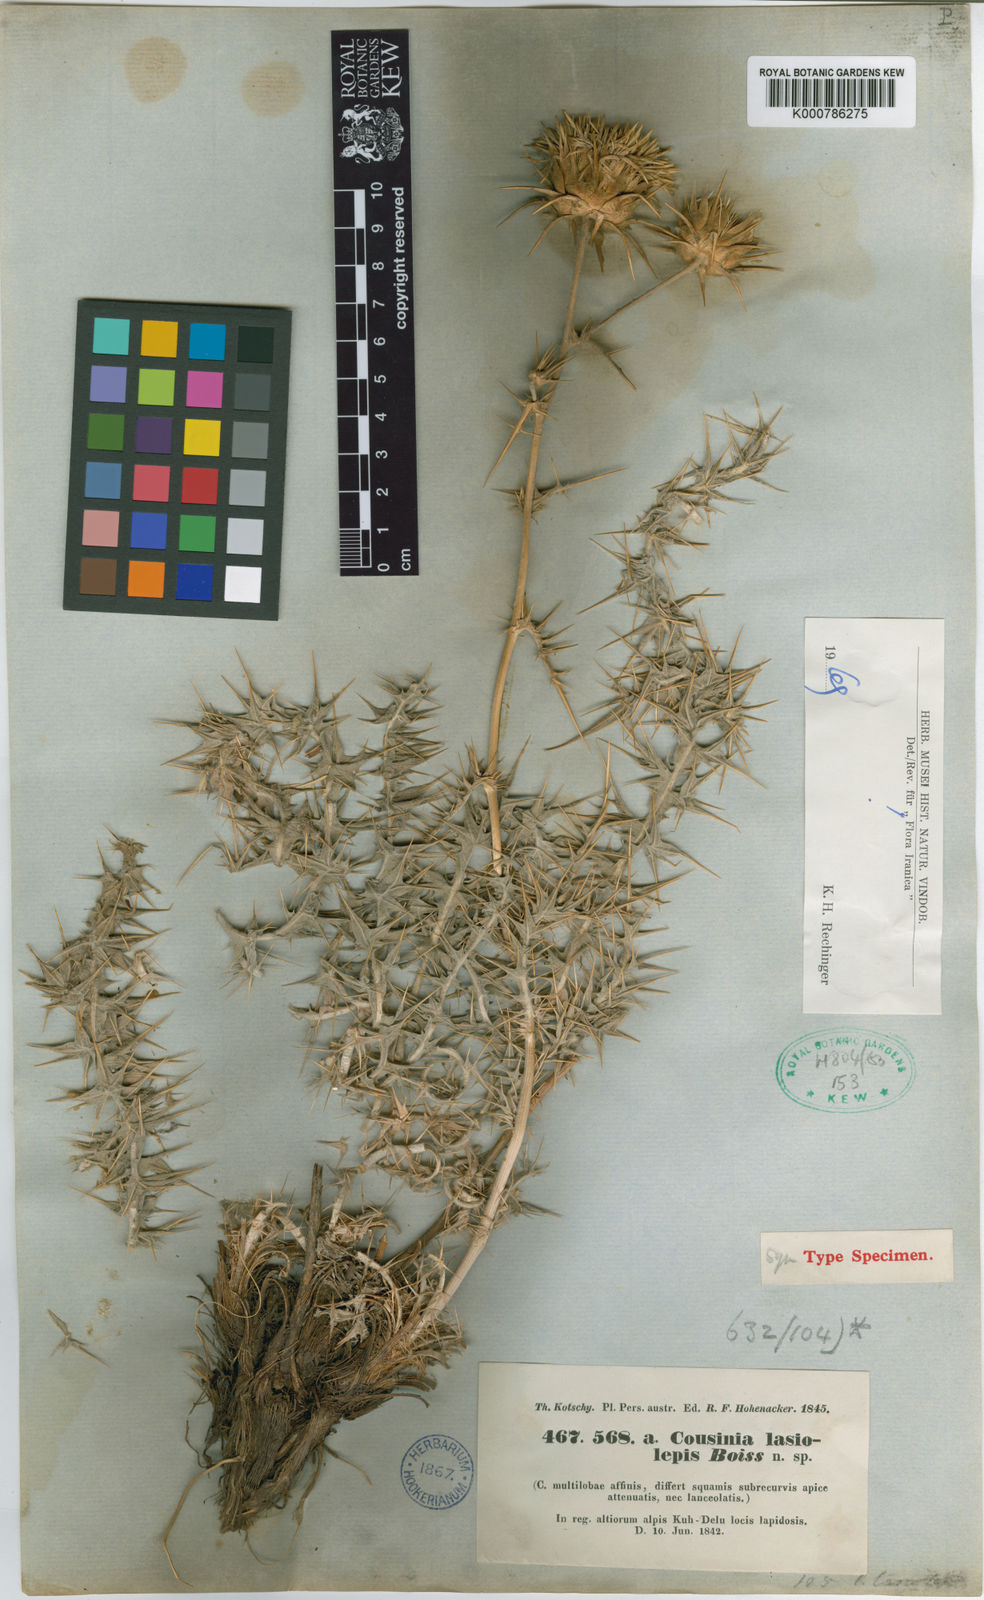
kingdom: Plantae
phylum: Tracheophyta
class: Magnoliopsida
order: Asterales
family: Asteraceae
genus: Cousinia
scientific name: Cousinia lasiolepis
